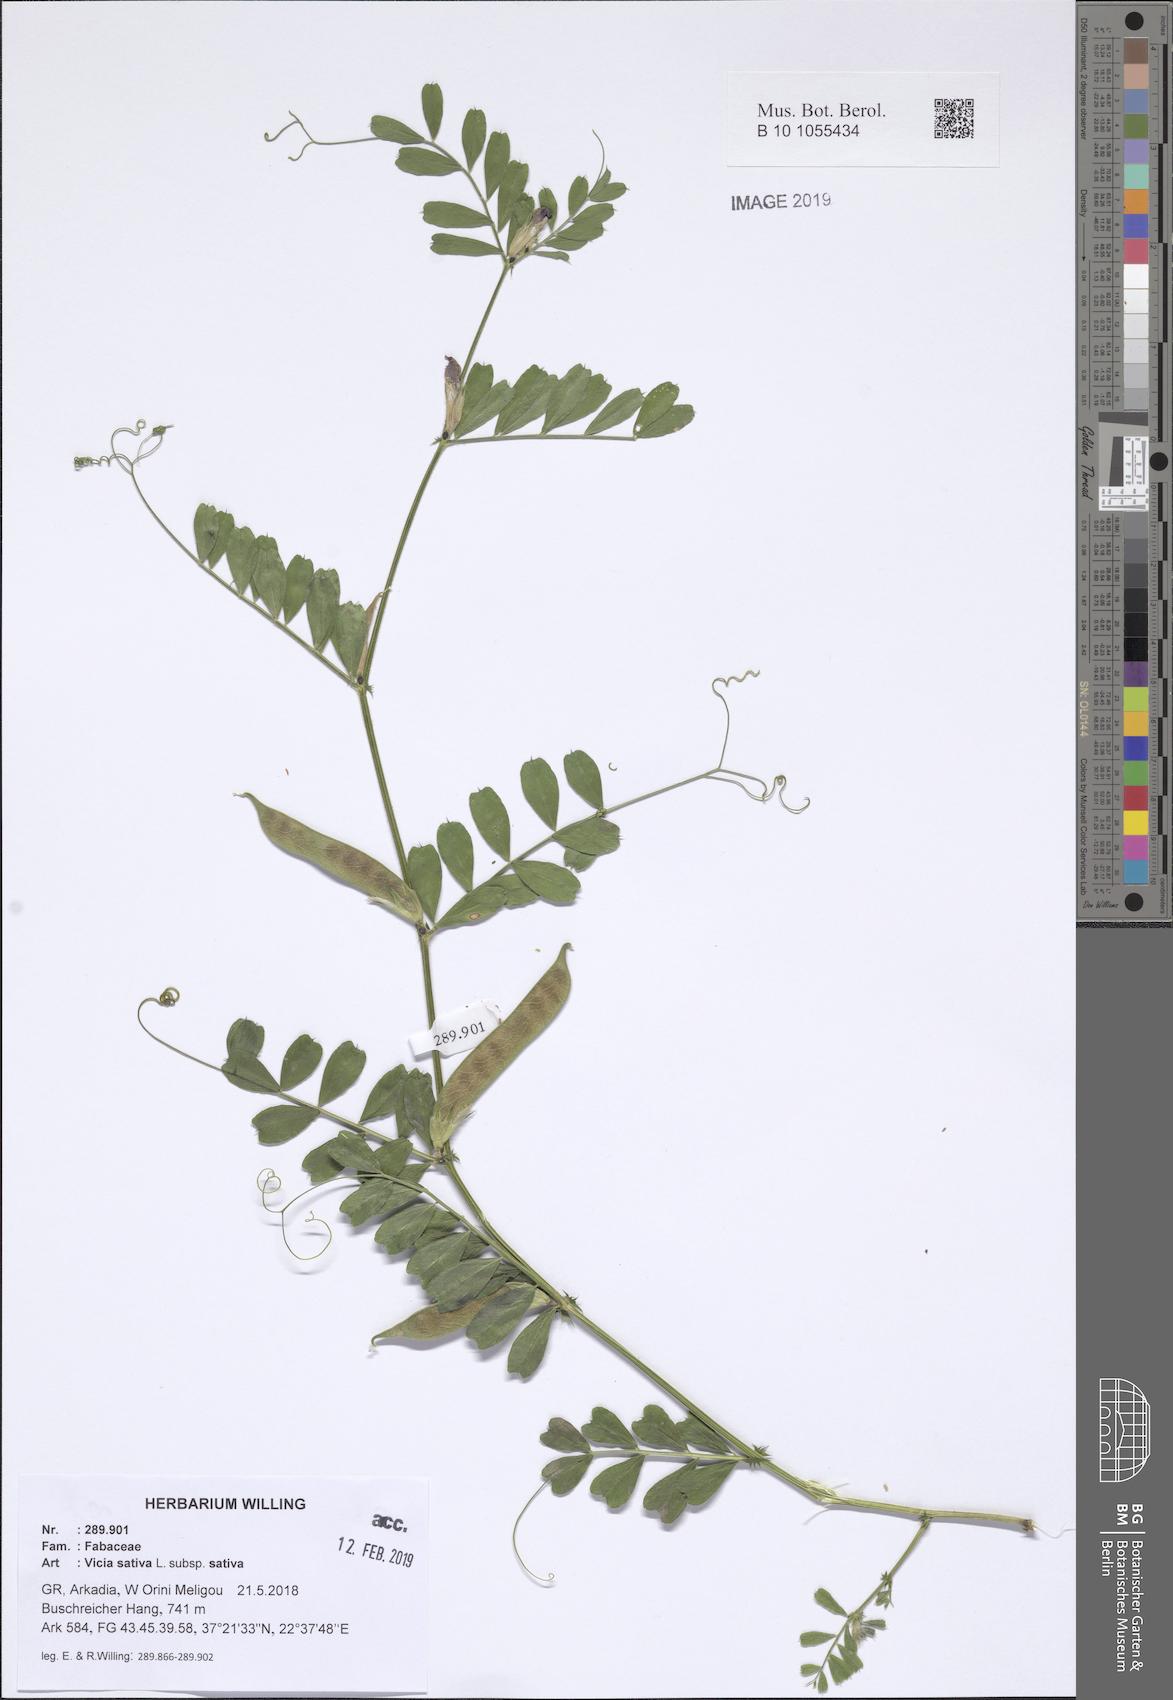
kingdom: Plantae
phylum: Tracheophyta
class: Magnoliopsida
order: Fabales
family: Fabaceae
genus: Vicia
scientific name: Vicia sativa
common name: Garden vetch
